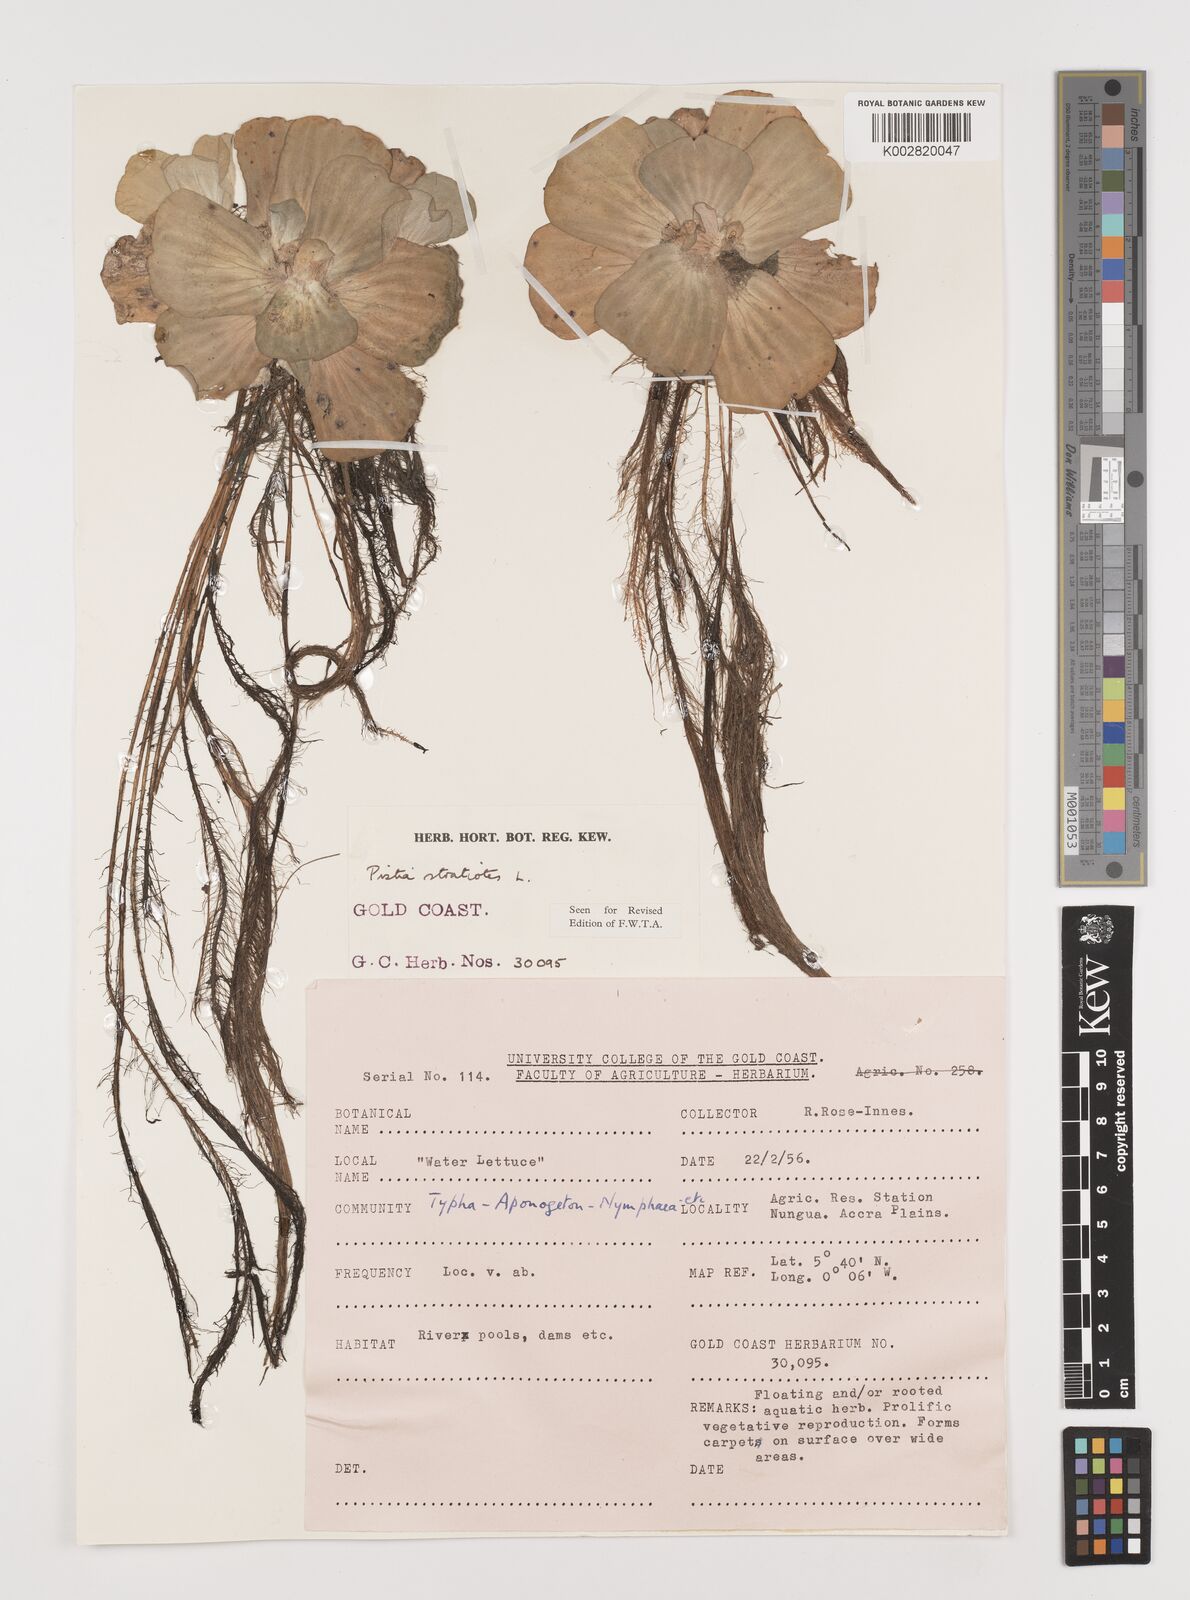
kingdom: Plantae
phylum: Tracheophyta
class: Liliopsida
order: Alismatales
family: Araceae
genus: Pistia
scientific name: Pistia stratiotes
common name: Water lettuce
